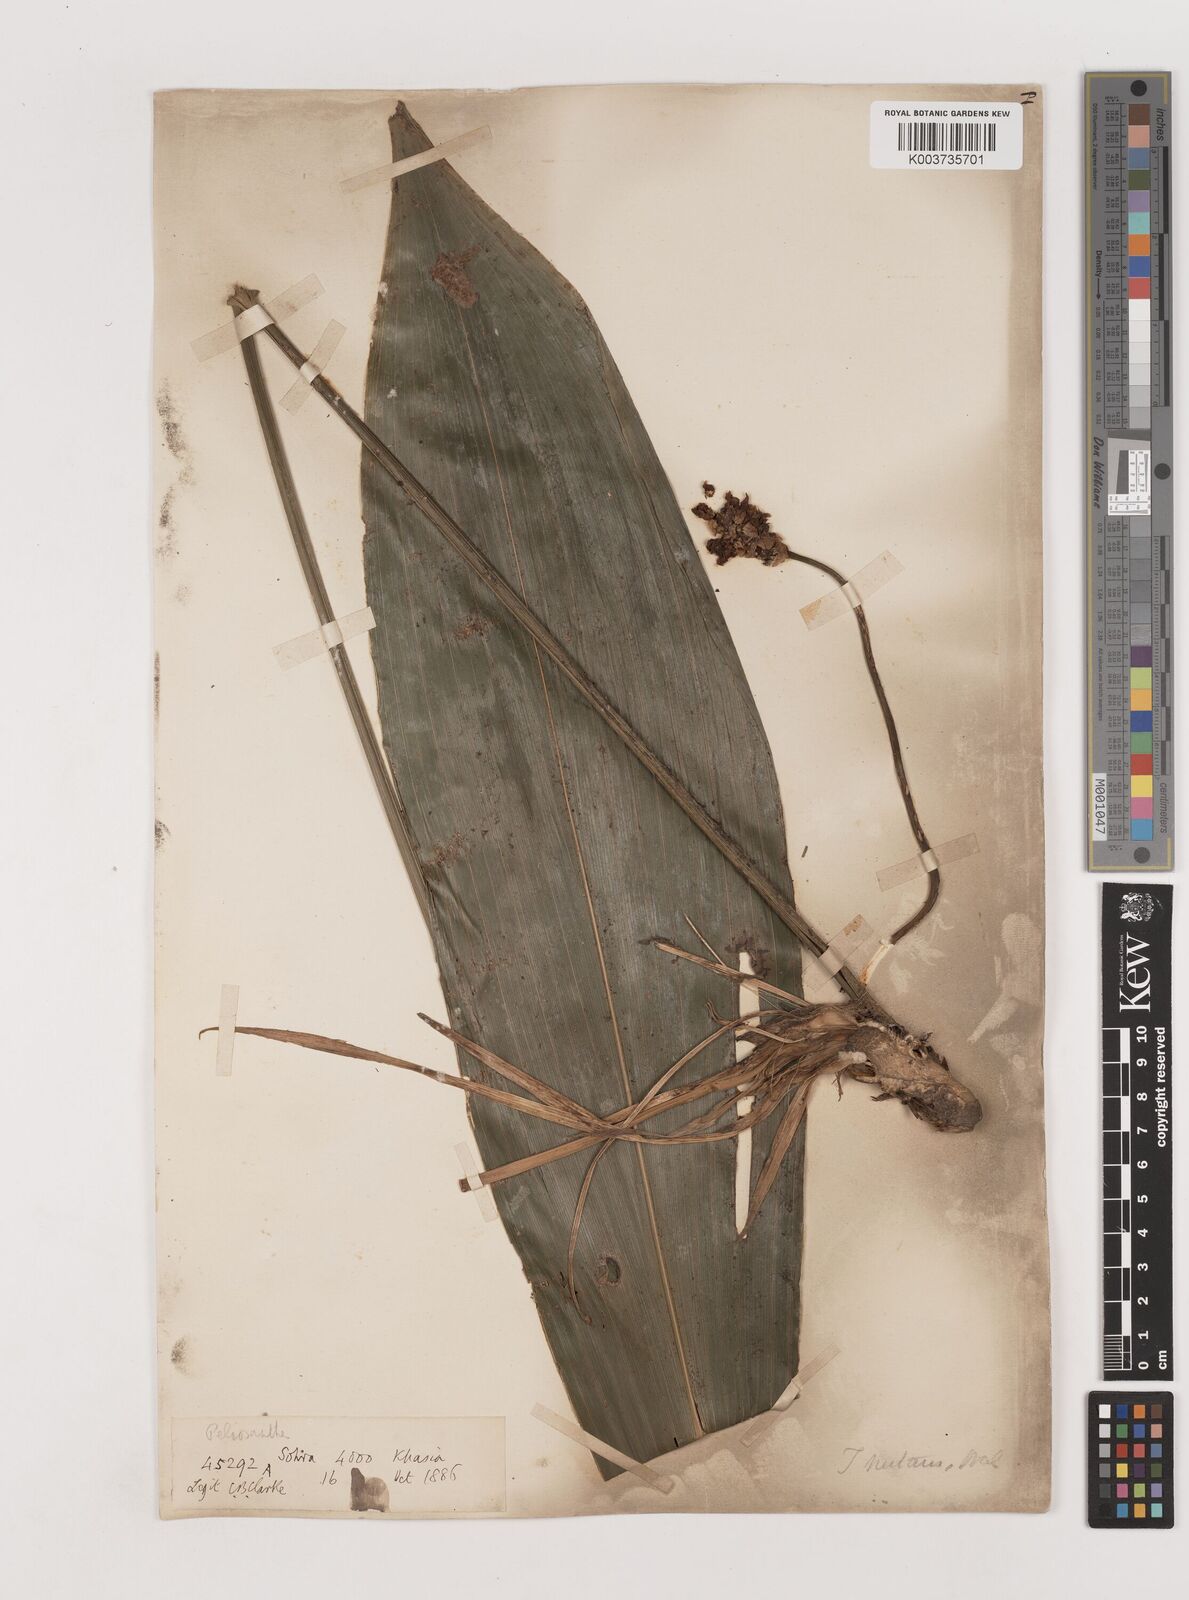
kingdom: Plantae
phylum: Tracheophyta
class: Liliopsida
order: Asparagales
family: Asparagaceae
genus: Tupistra
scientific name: Tupistra nutans
